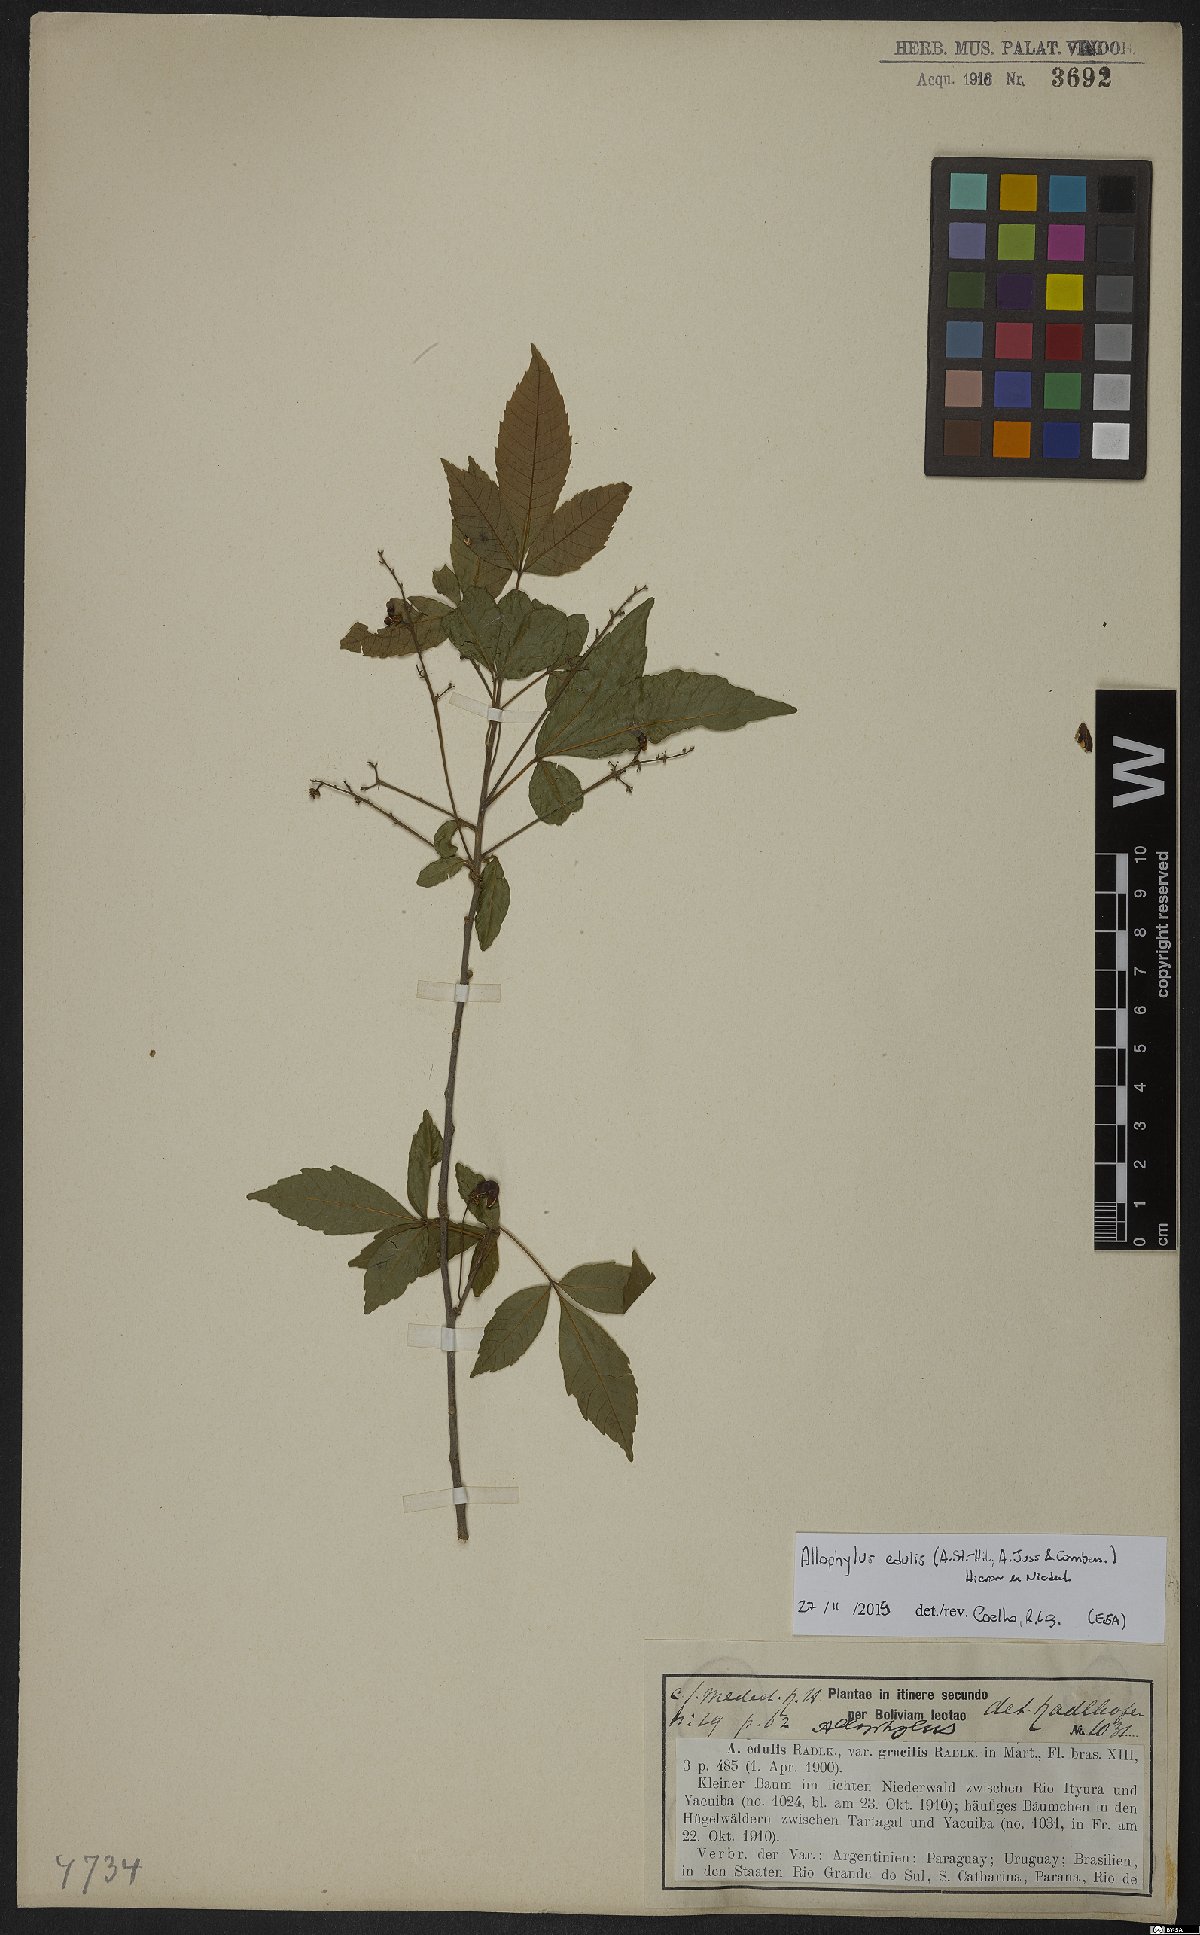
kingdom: Plantae
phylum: Tracheophyta
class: Magnoliopsida
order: Sapindales
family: Sapindaceae
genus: Allophylus
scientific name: Allophylus edulis
